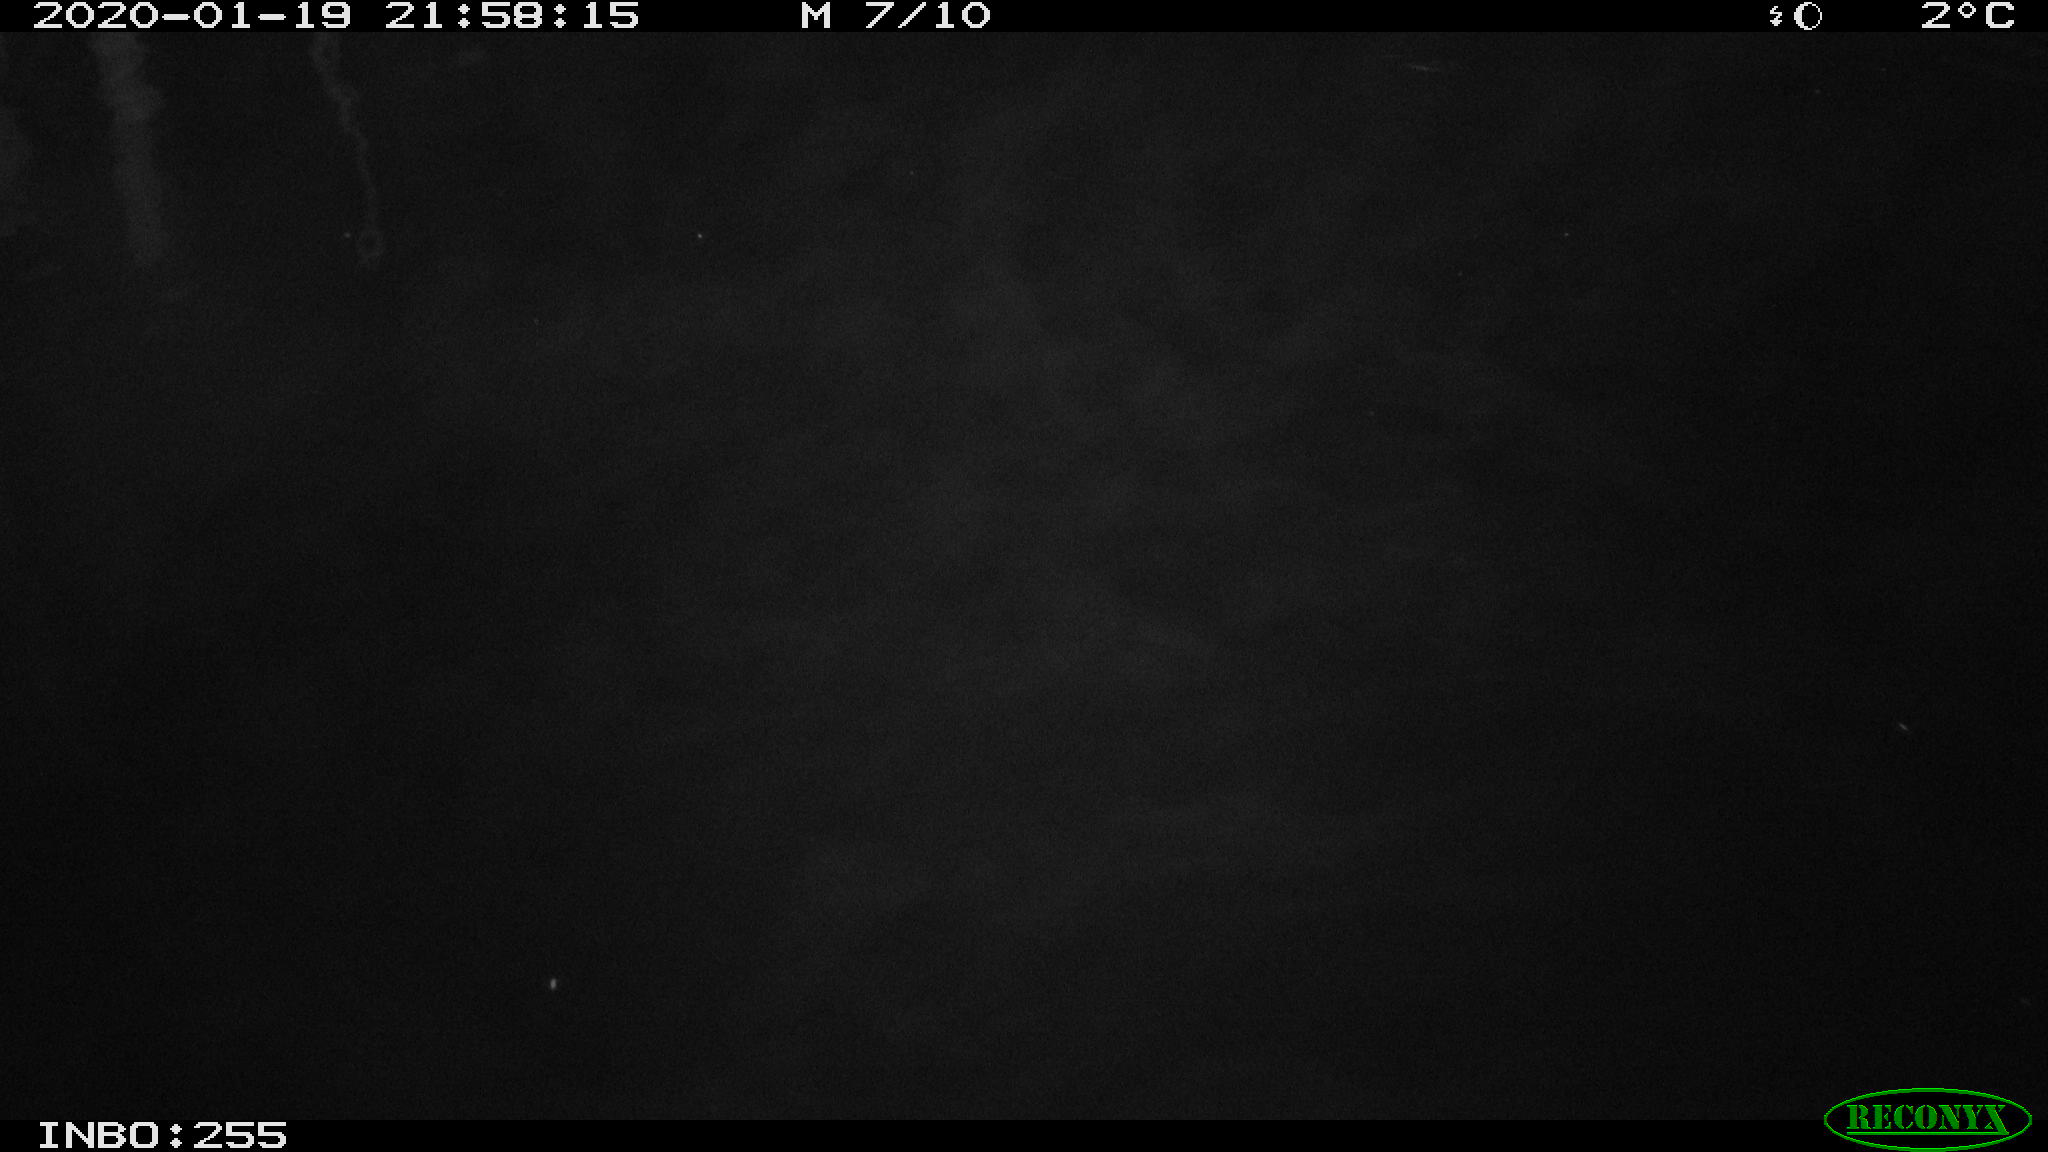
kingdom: Animalia
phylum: Chordata
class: Aves
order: Anseriformes
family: Anatidae
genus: Anas
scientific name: Anas platyrhynchos
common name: Mallard
